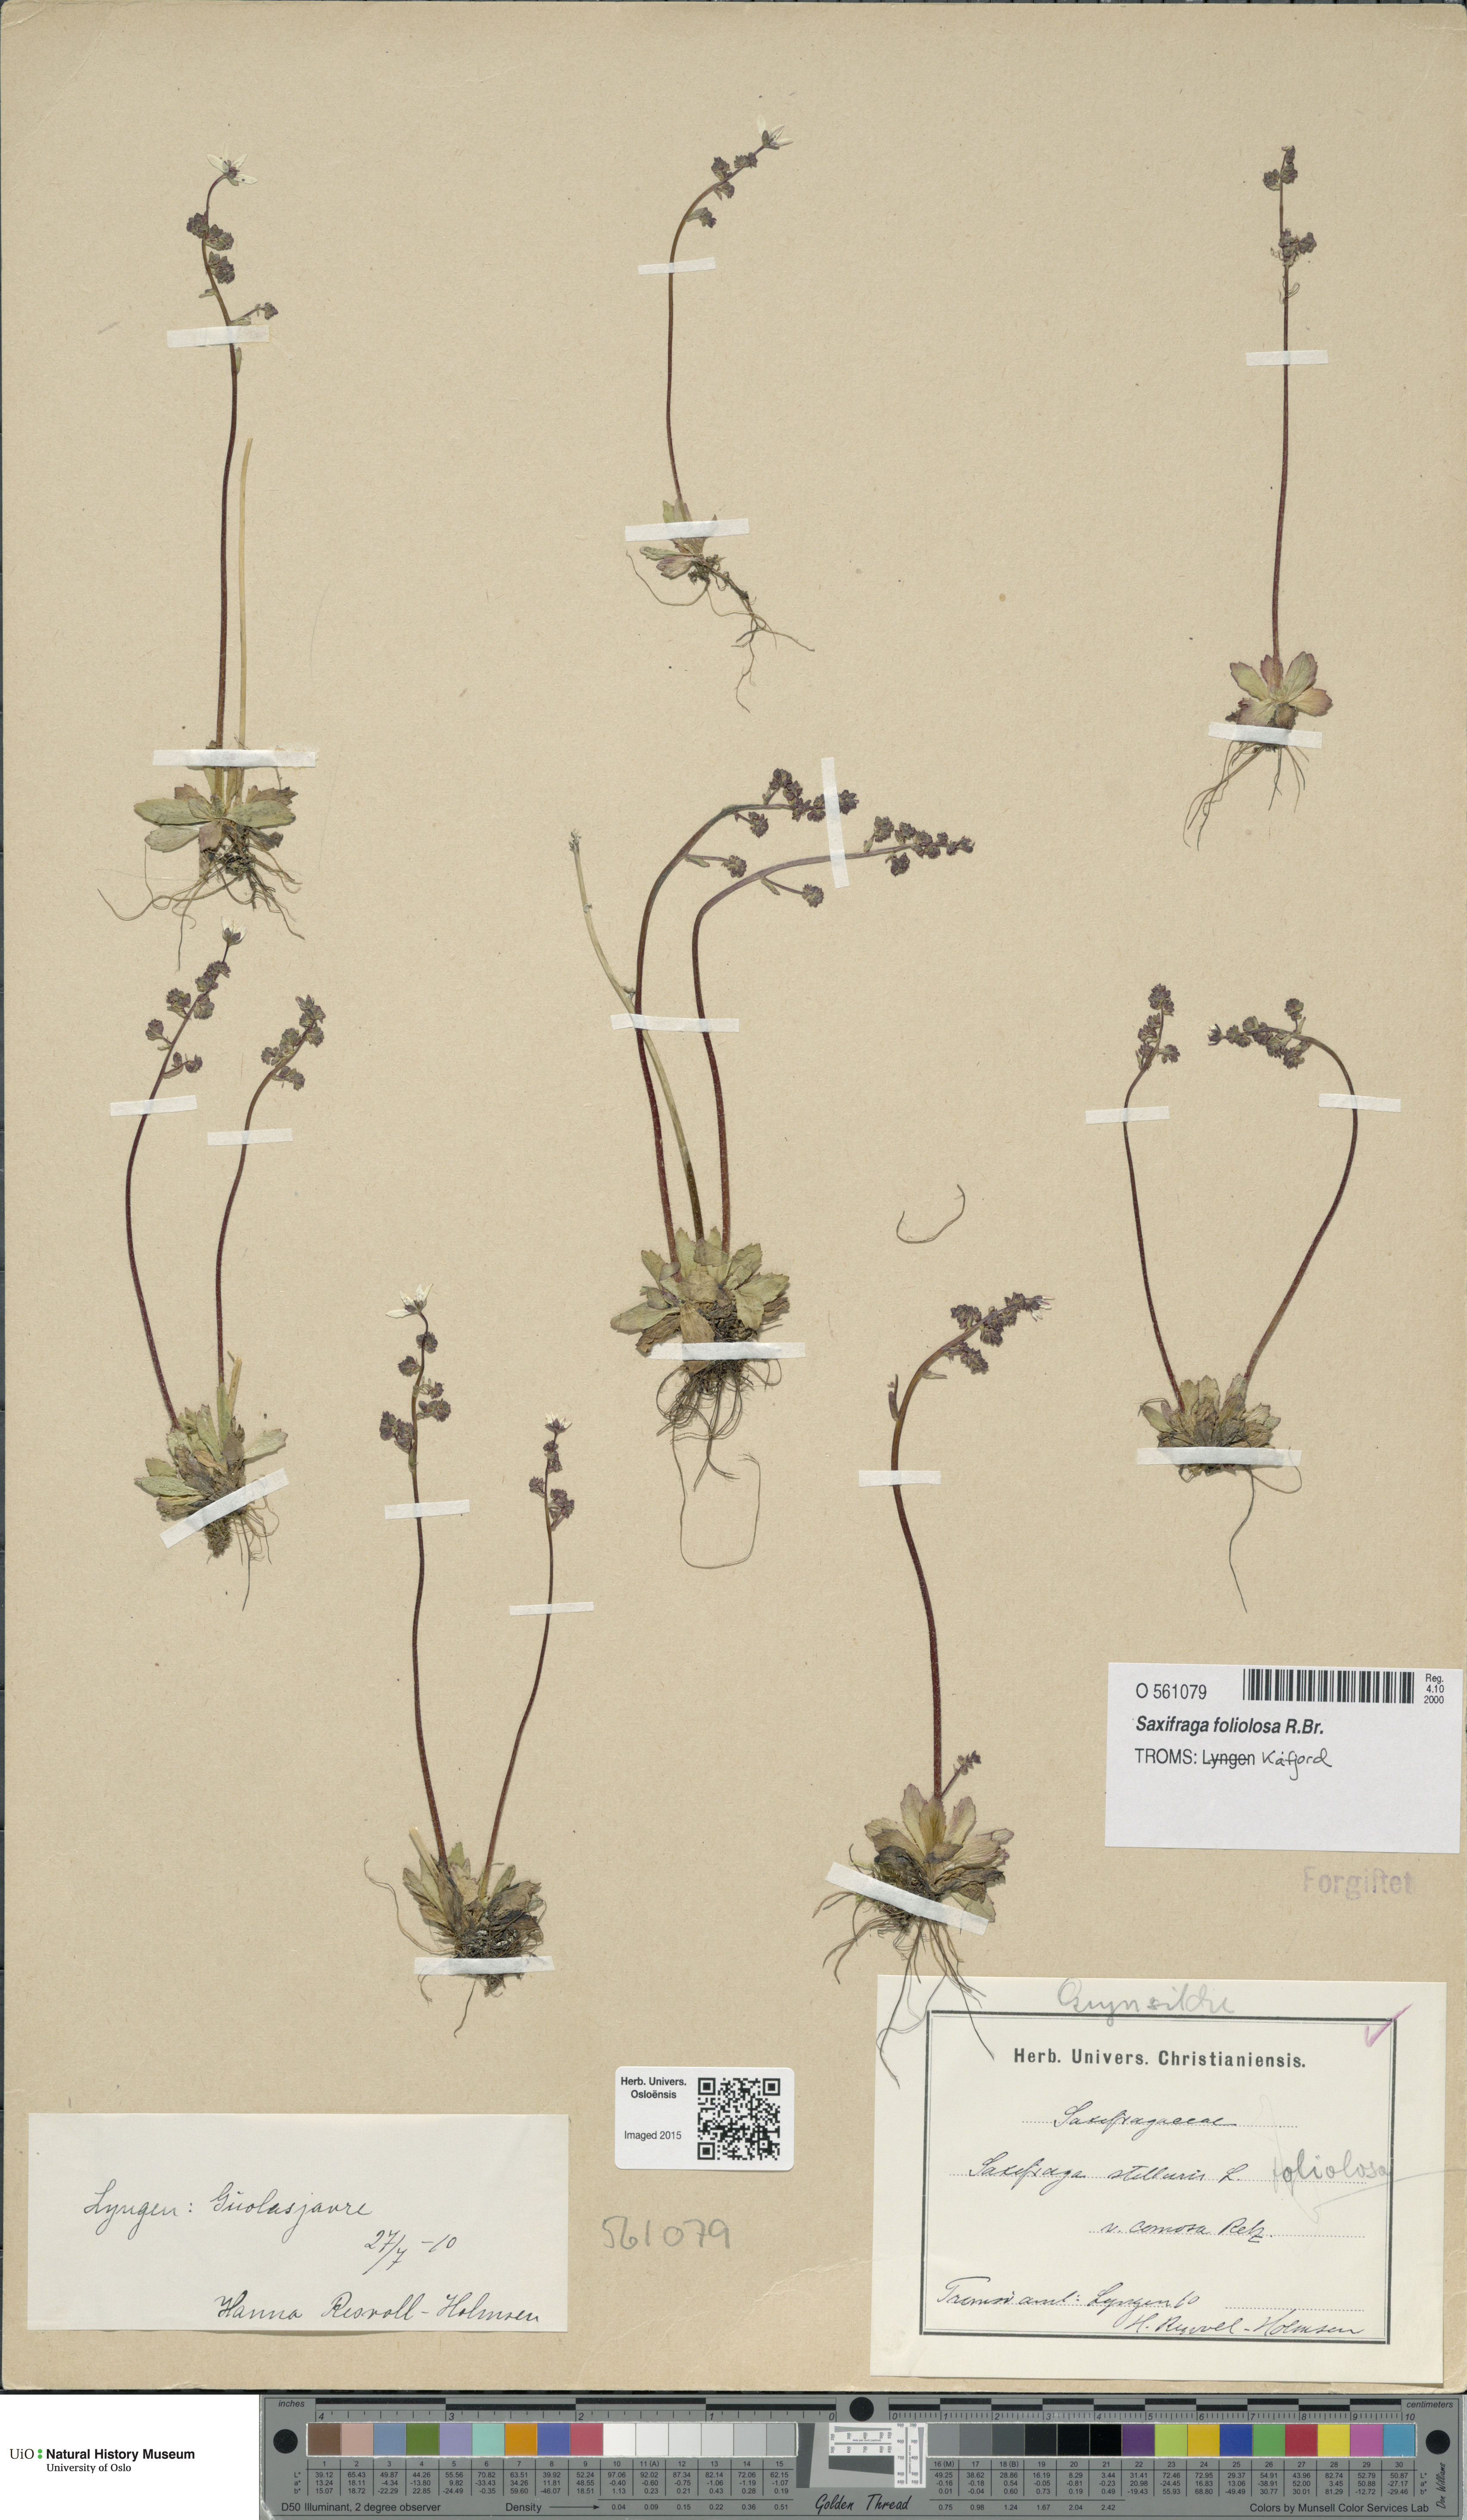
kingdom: Plantae
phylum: Tracheophyta
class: Magnoliopsida
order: Saxifragales
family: Saxifragaceae
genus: Micranthes
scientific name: Micranthes foliolosa
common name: Leafystem saxifrage
